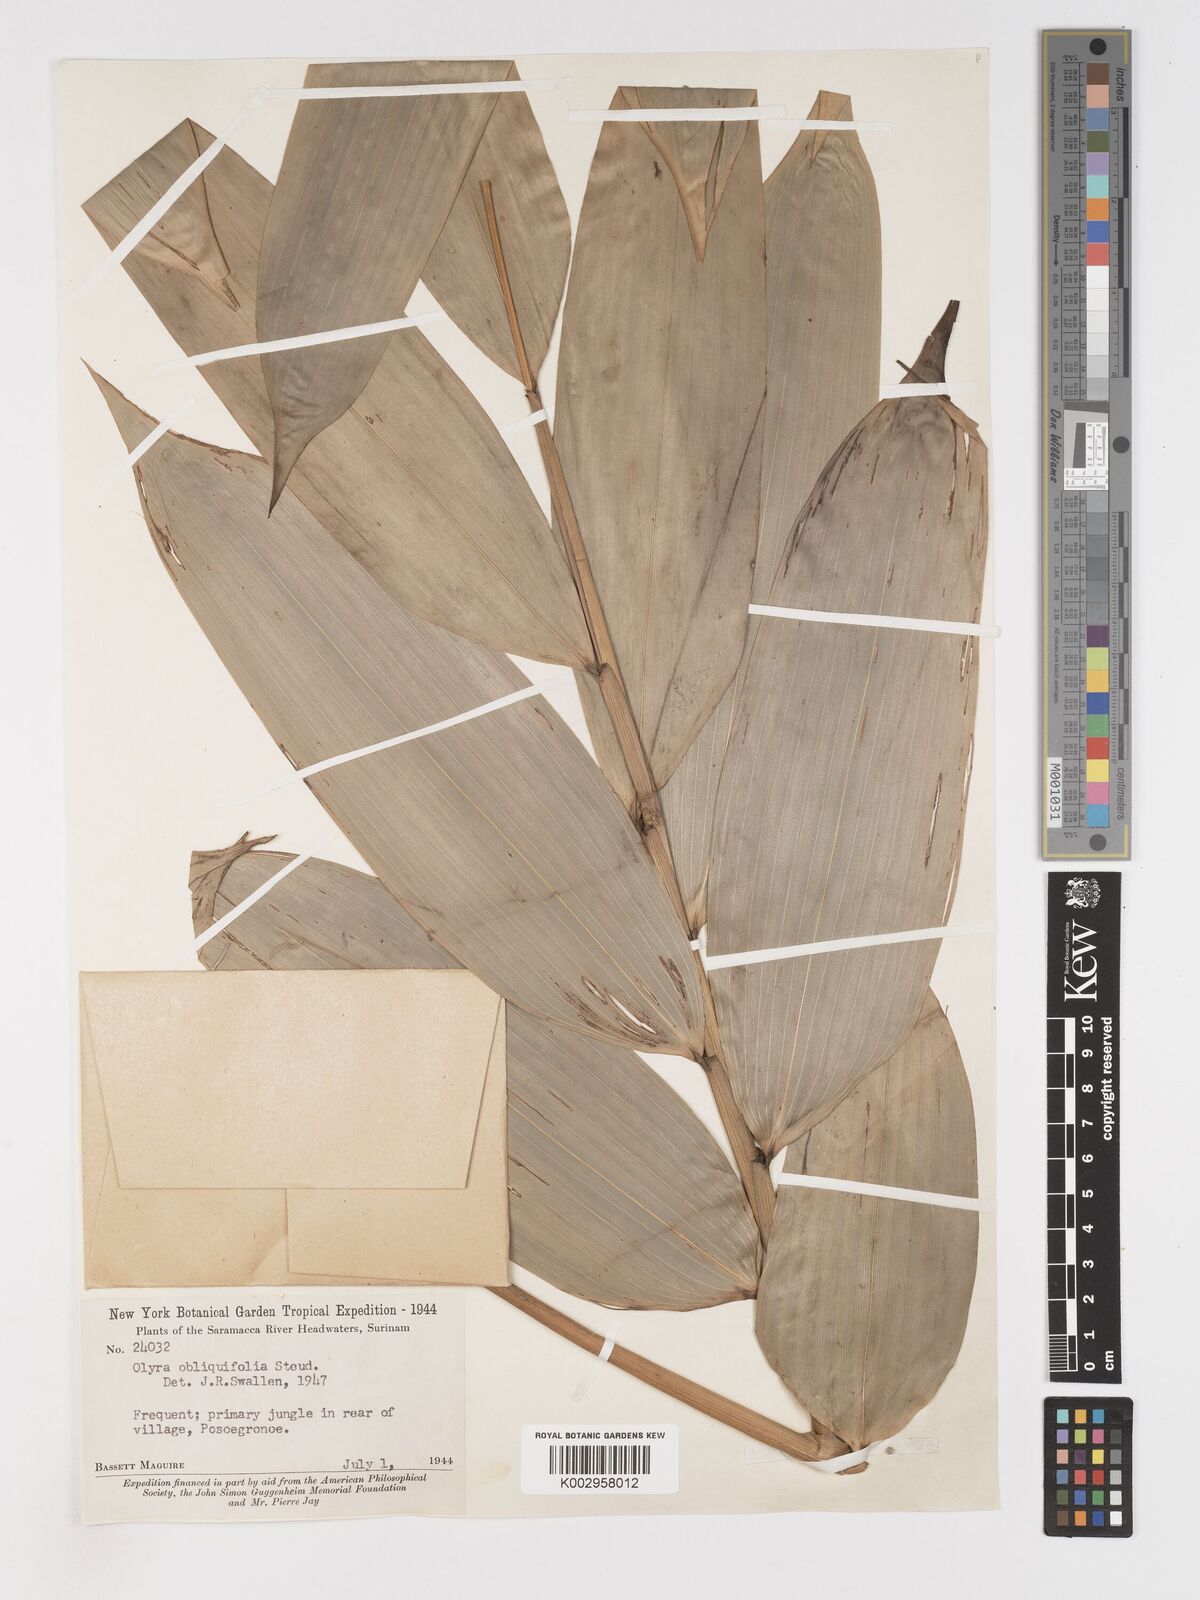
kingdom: Plantae
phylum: Tracheophyta
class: Liliopsida
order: Poales
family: Poaceae
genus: Olyra
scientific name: Olyra obliquifolia
